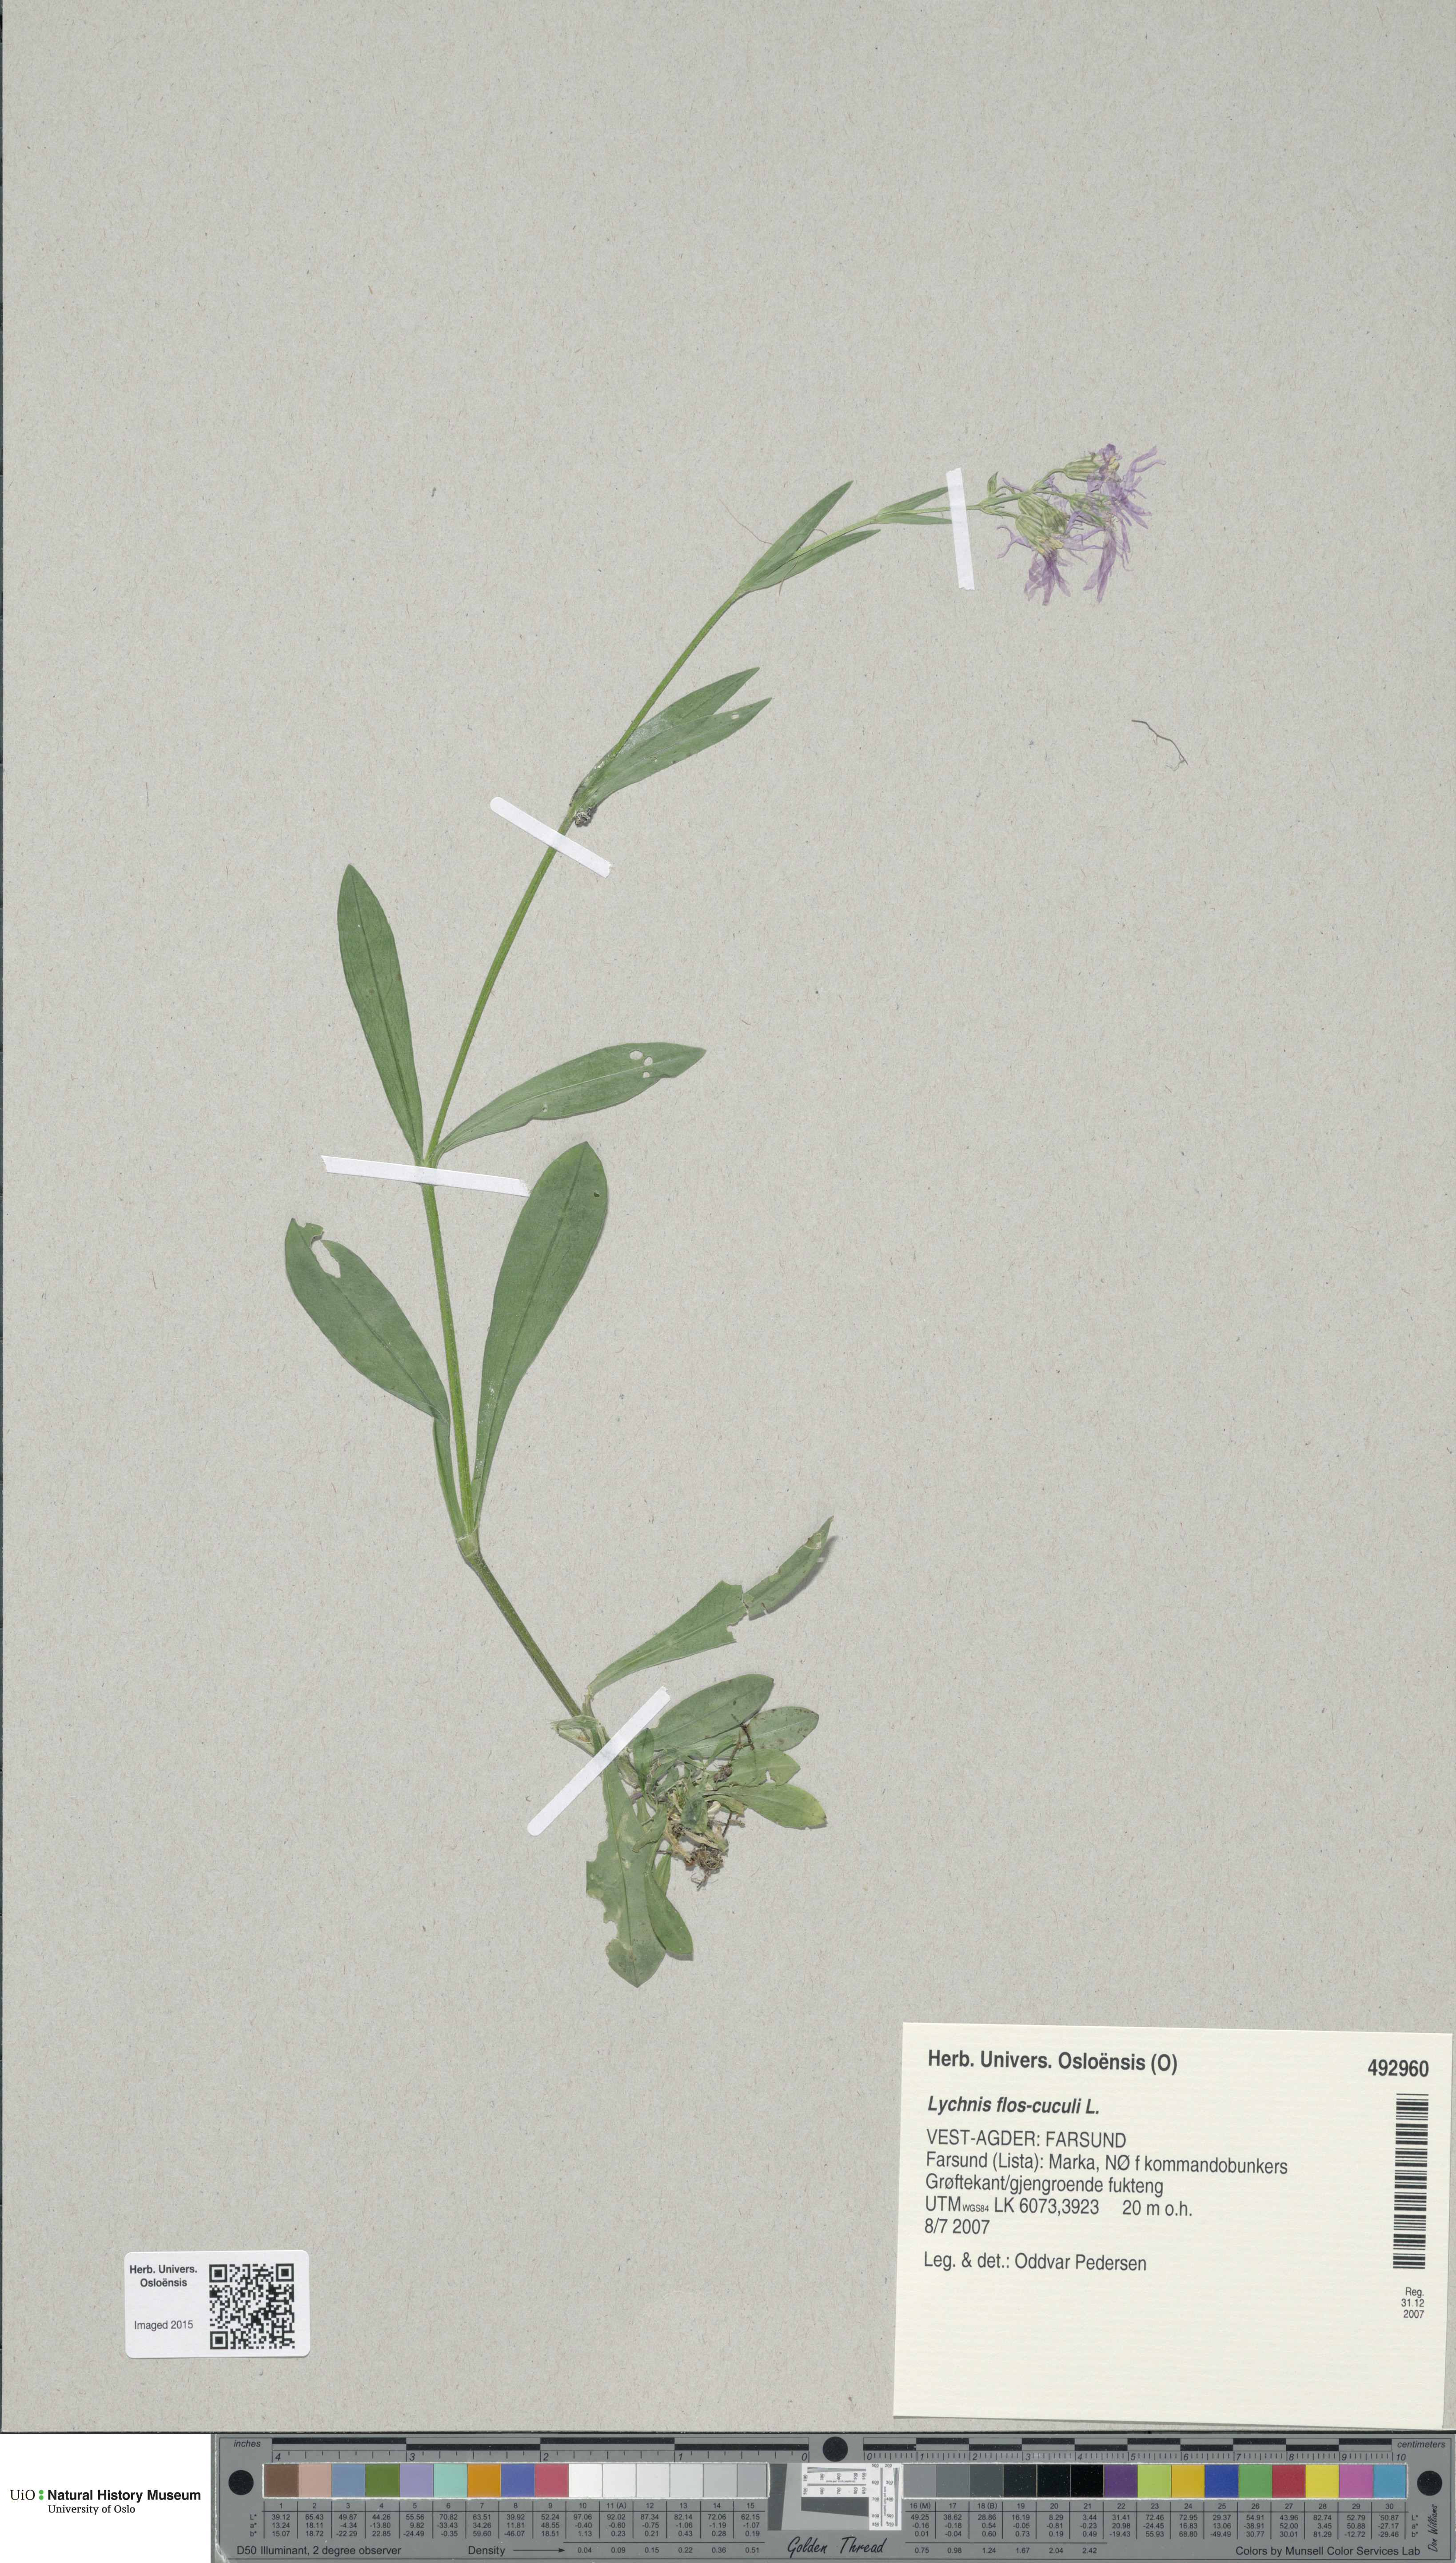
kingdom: Plantae
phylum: Tracheophyta
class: Magnoliopsida
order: Caryophyllales
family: Caryophyllaceae
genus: Silene
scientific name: Silene flos-cuculi
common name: Ragged-robin
